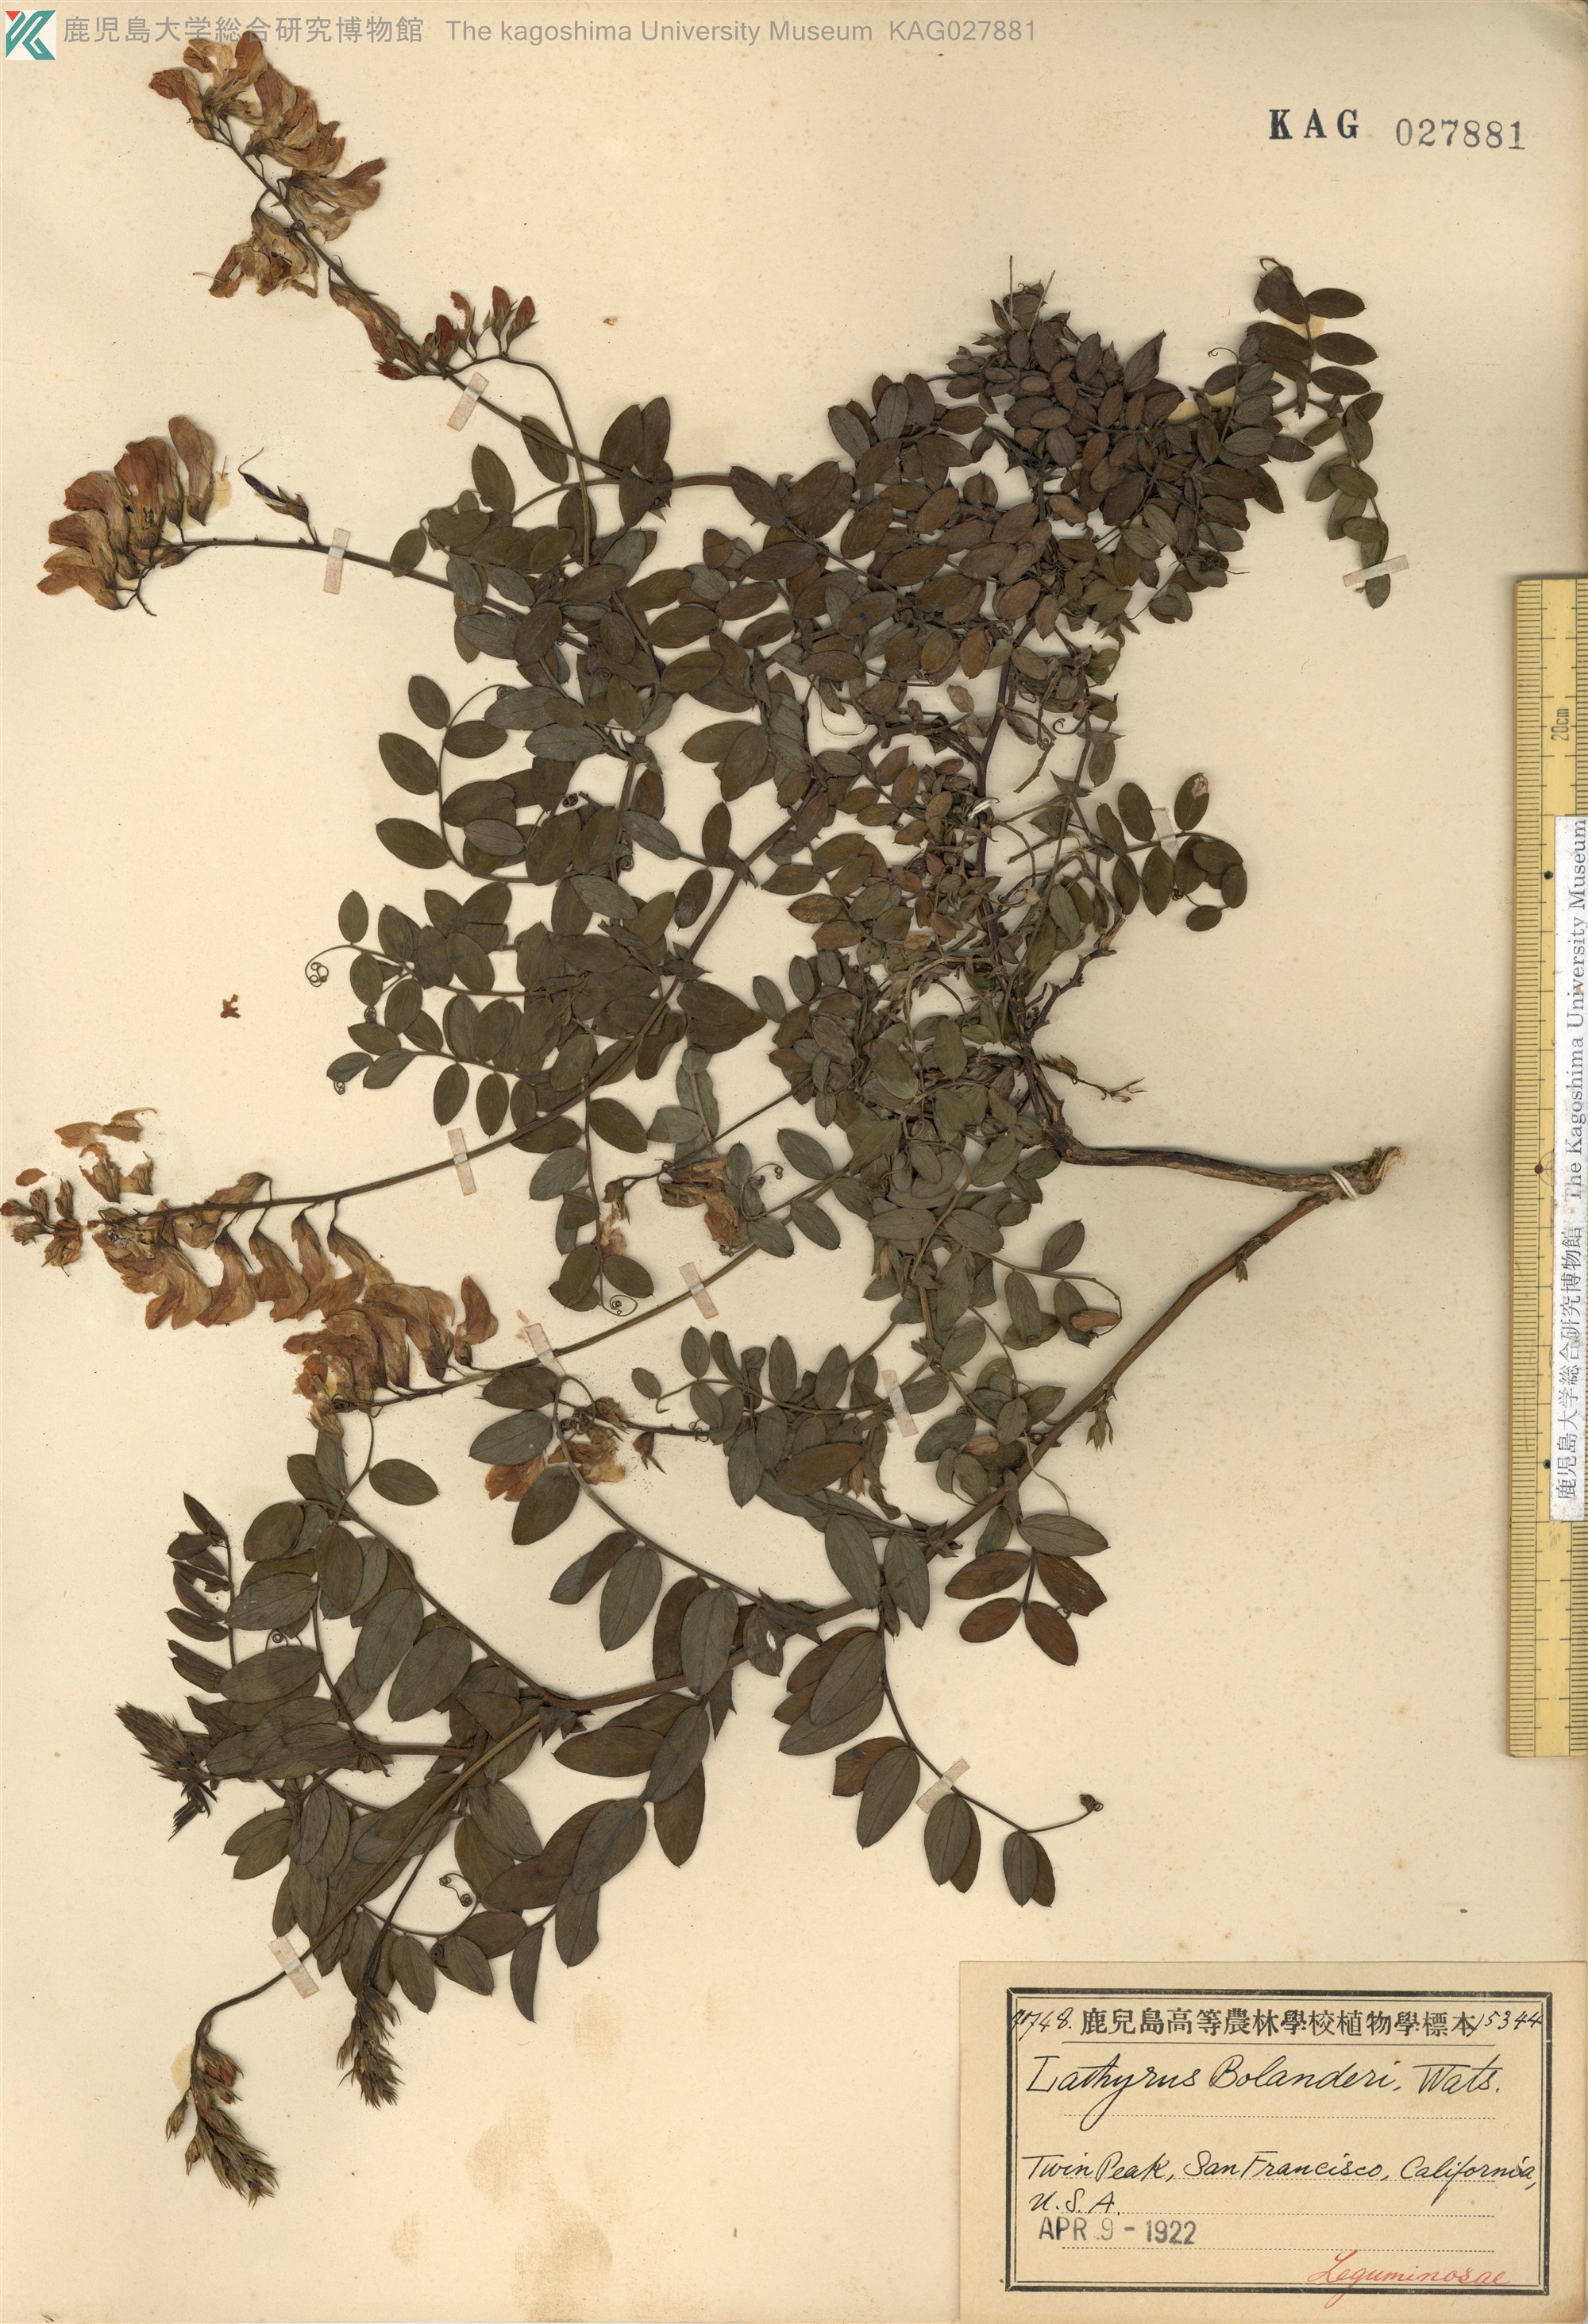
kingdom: Plantae
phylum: Tracheophyta
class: Magnoliopsida
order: Fabales
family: Fabaceae
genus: Lathyrus
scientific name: Lathyrus vestitus
